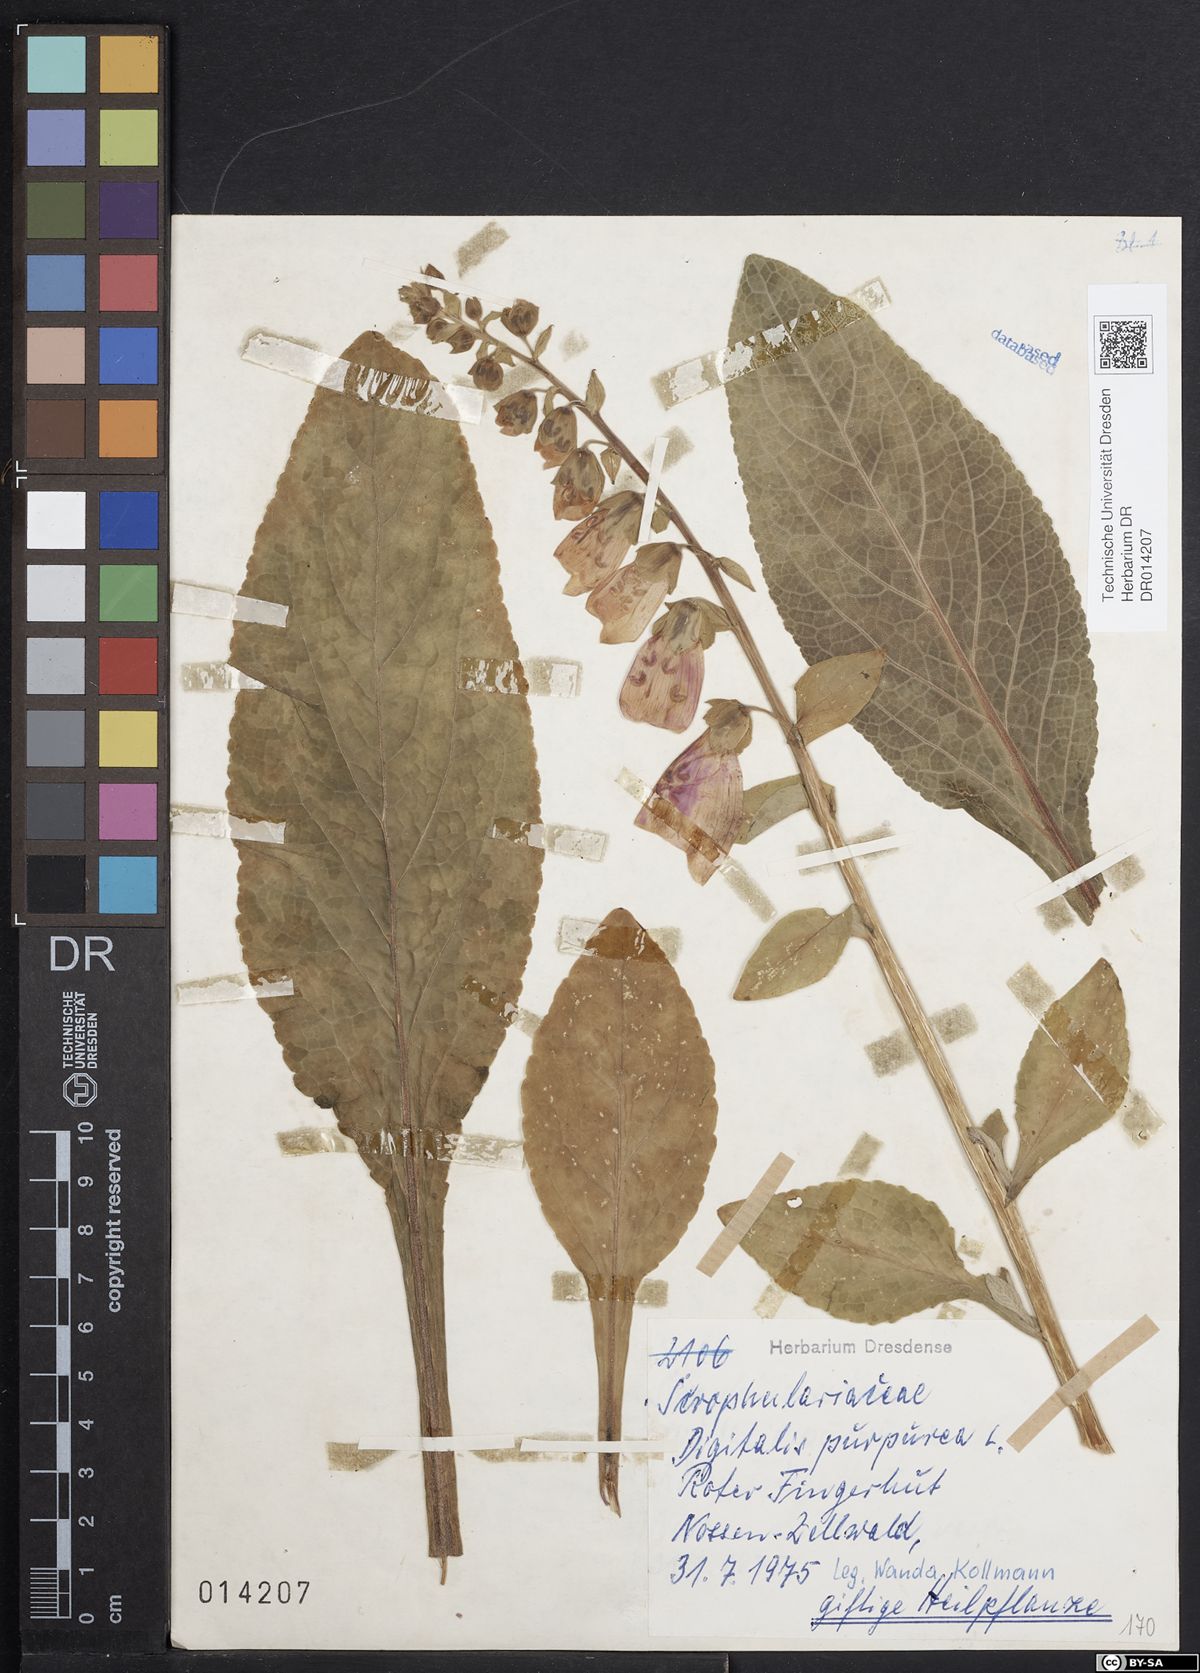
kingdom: Plantae
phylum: Tracheophyta
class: Magnoliopsida
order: Lamiales
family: Plantaginaceae
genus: Digitalis
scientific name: Digitalis purpurea
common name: Foxglove
